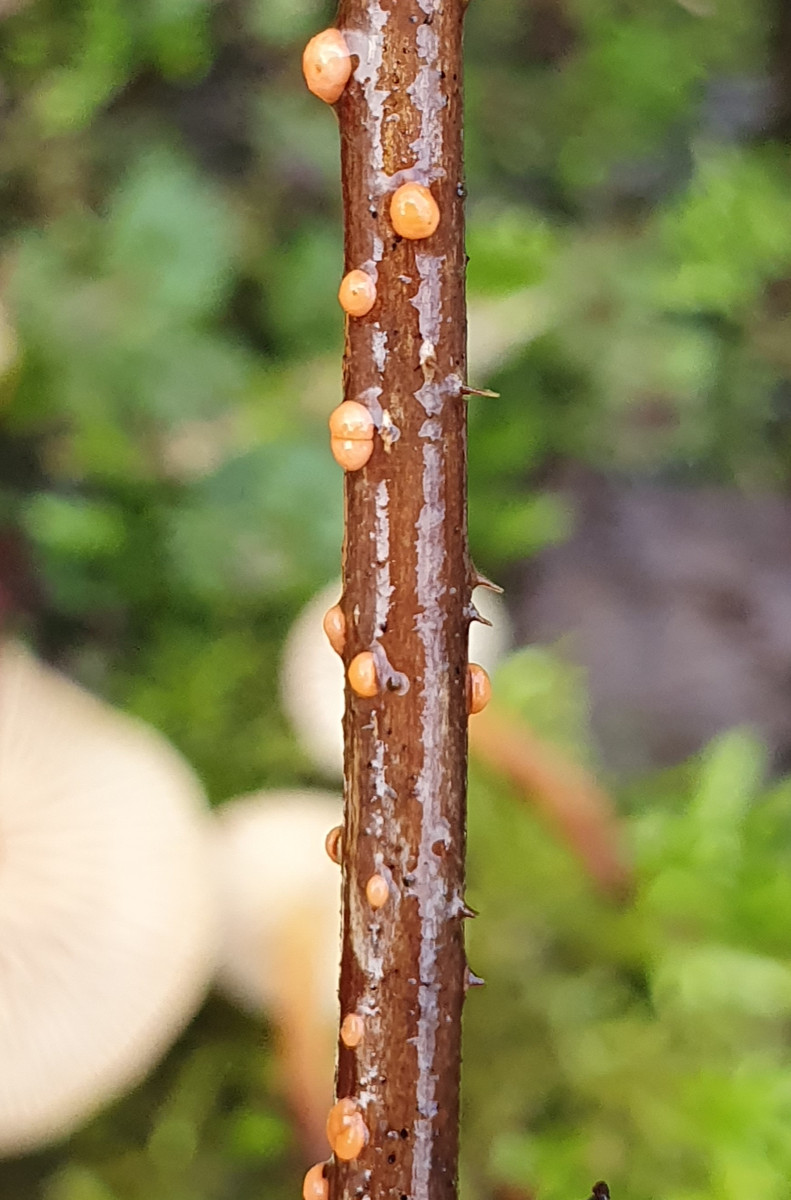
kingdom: Fungi
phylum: Ascomycota
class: Sordariomycetes
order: Hypocreales
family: Nectriaceae
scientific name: Nectriaceae
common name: cinnobersvampfamilien
